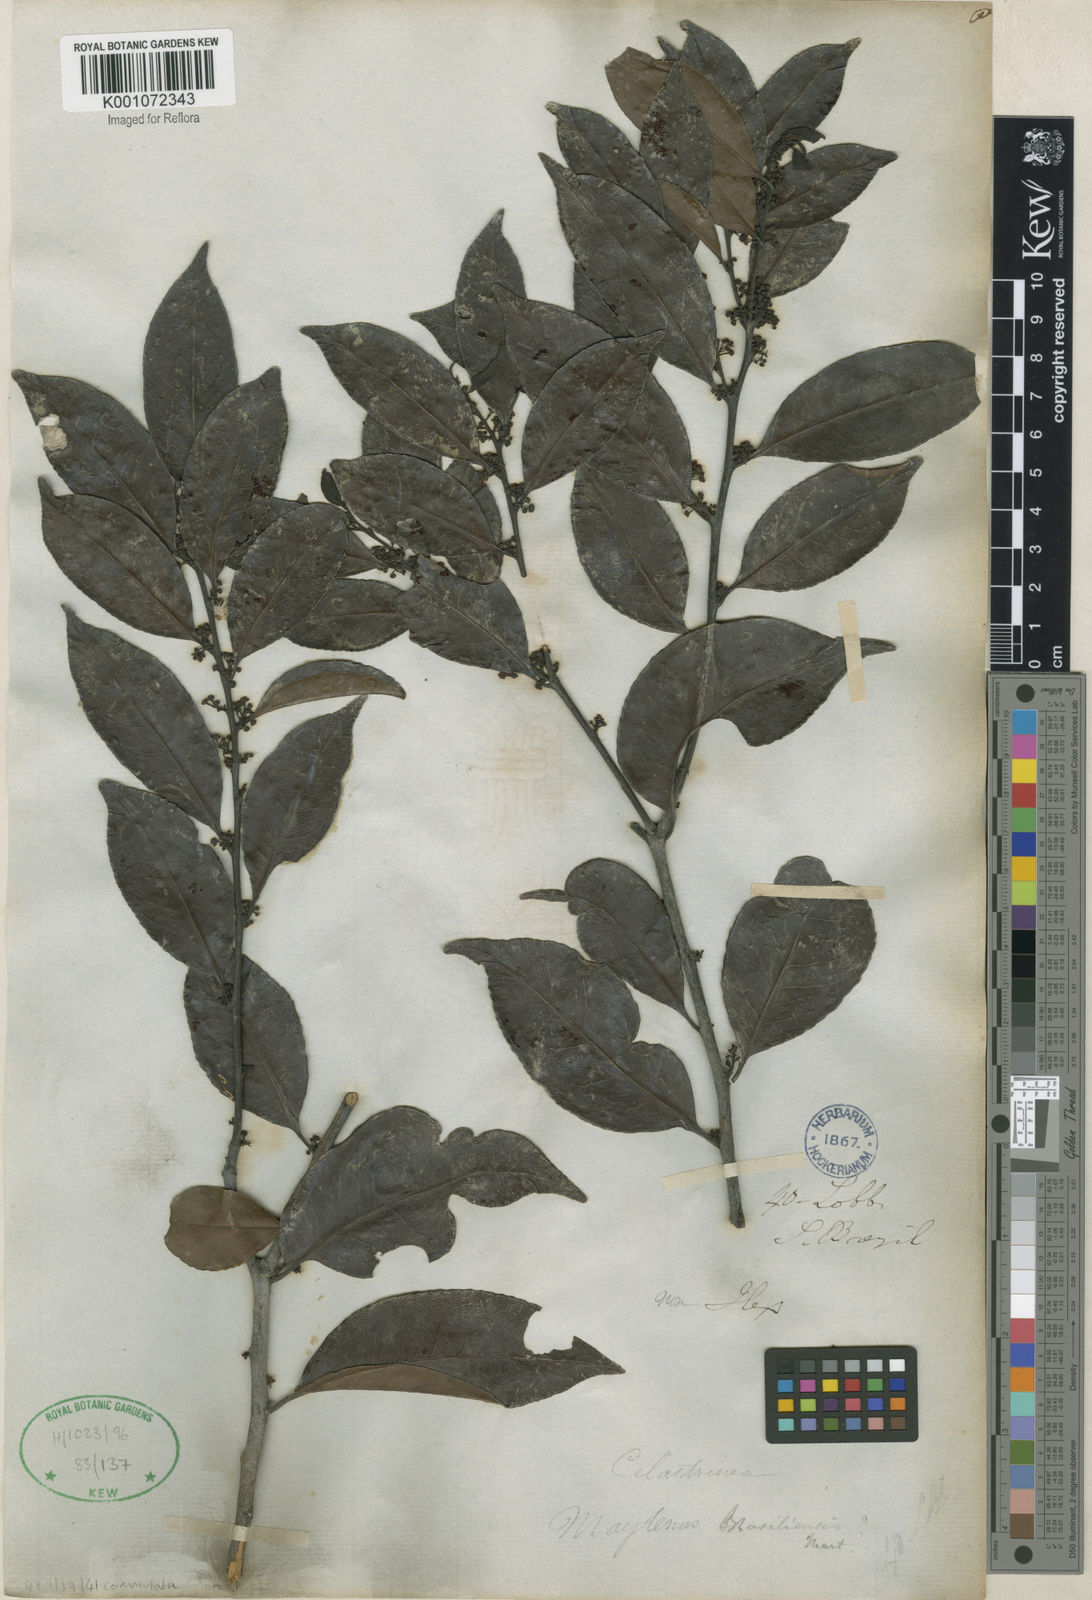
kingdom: Plantae
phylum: Tracheophyta
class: Magnoliopsida
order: Celastrales
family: Celastraceae
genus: Monteverdia
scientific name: Monteverdia brasiliensis
